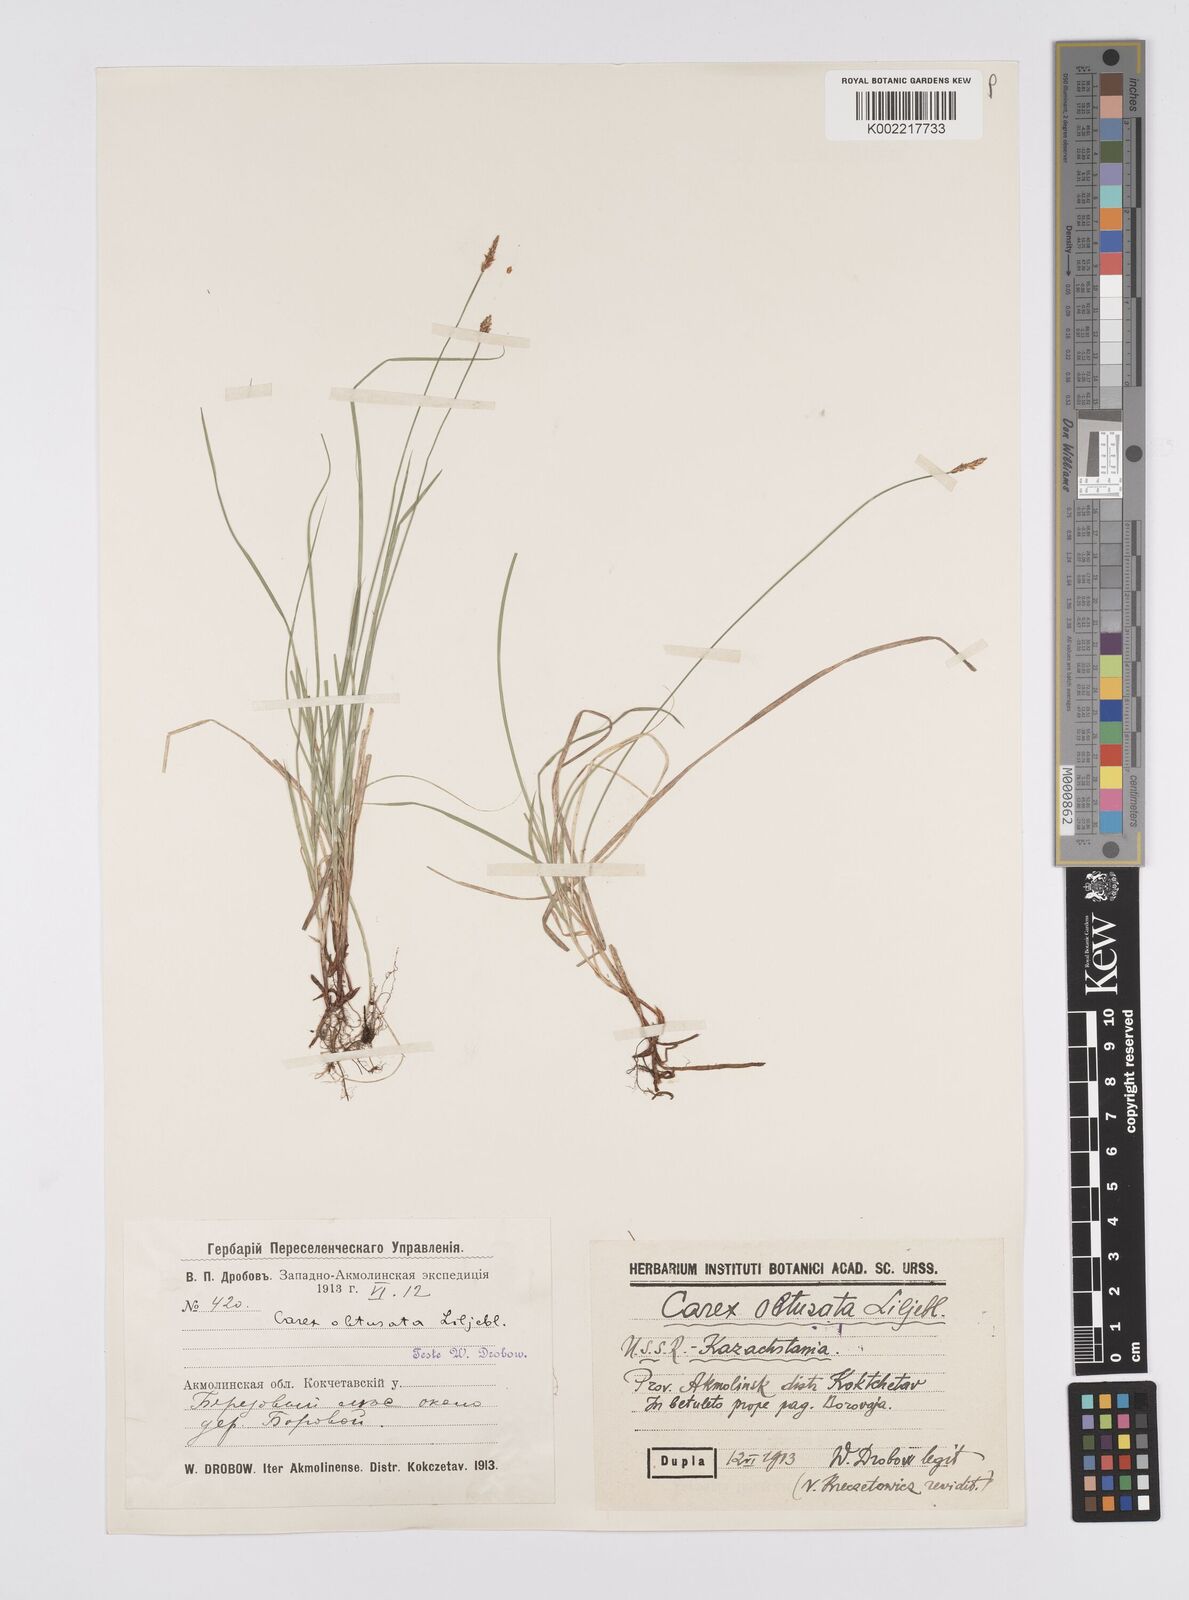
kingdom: Plantae
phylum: Tracheophyta
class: Liliopsida
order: Poales
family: Cyperaceae
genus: Carex
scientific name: Carex obtusata
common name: Blunt sedge
